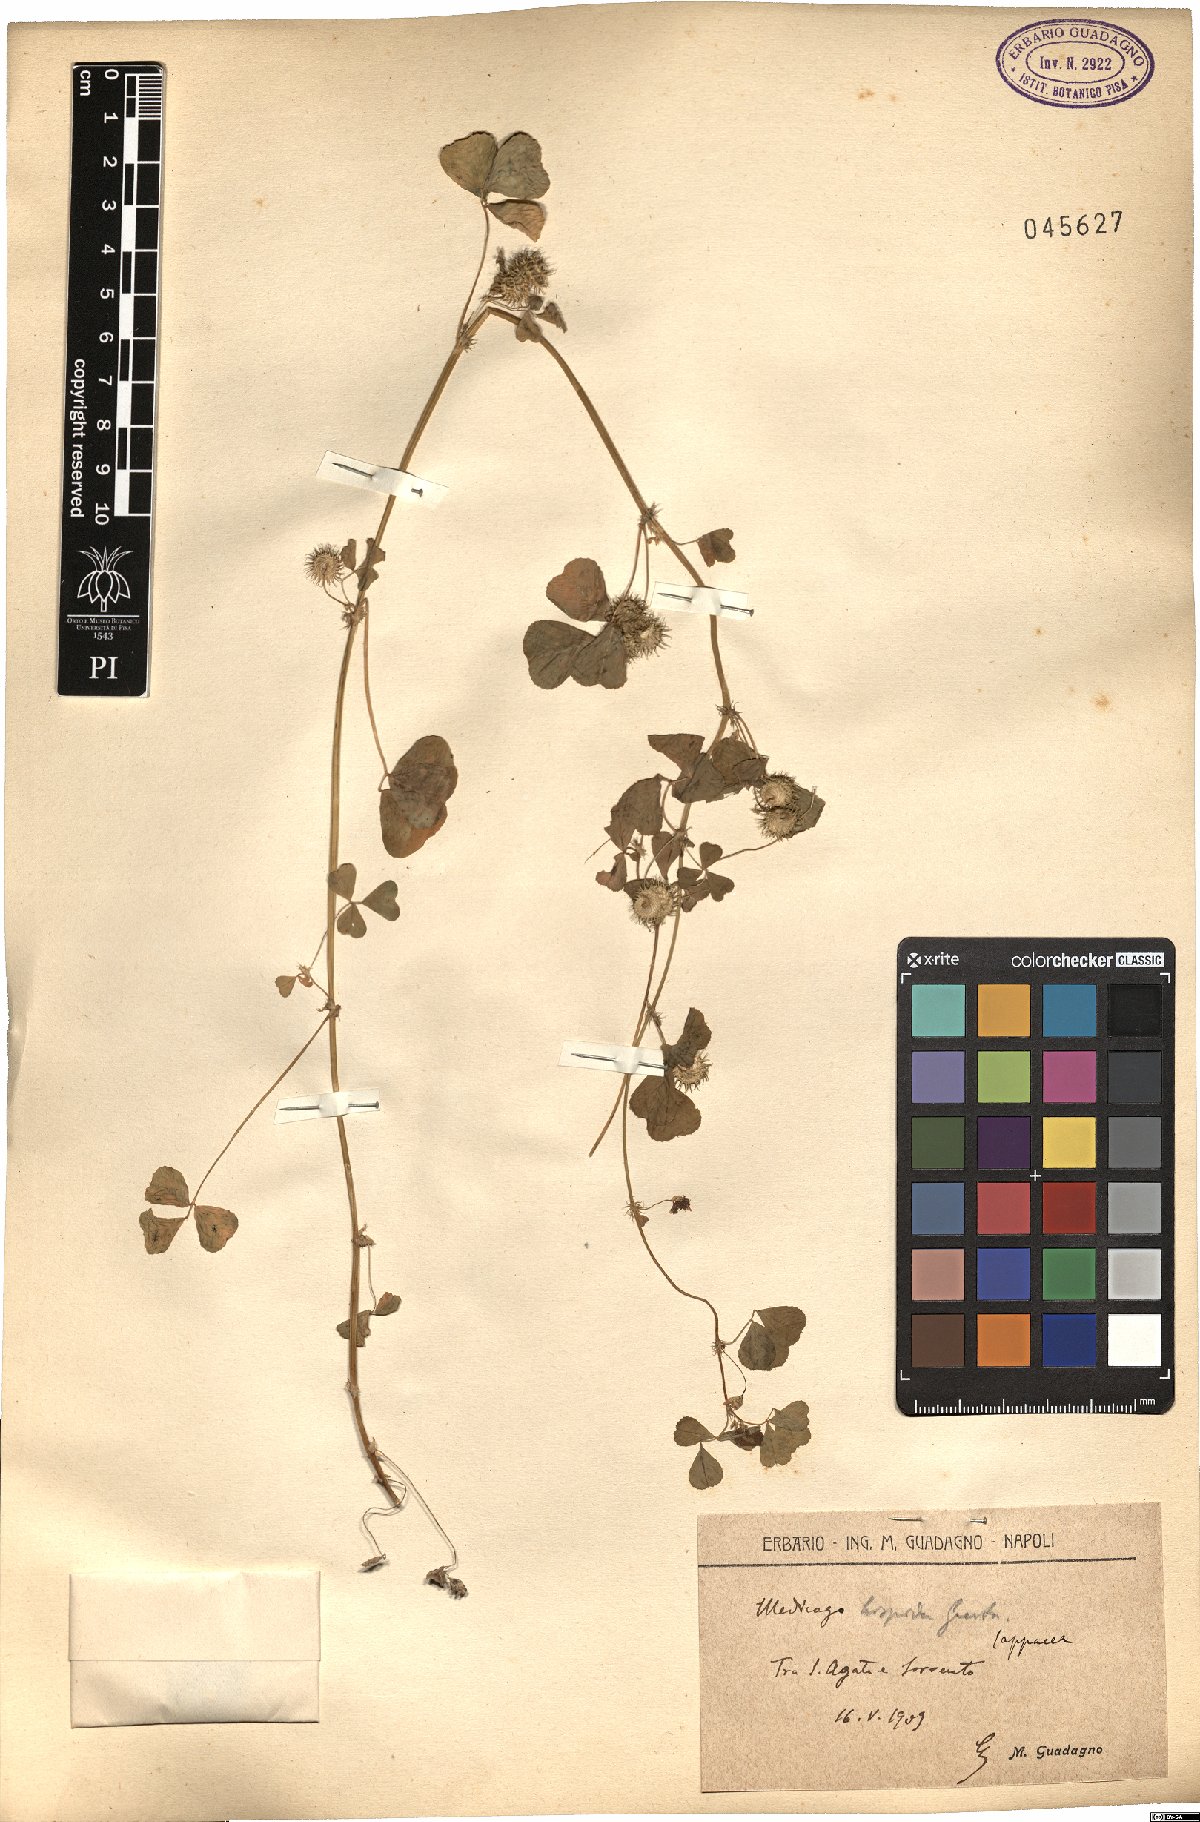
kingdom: Plantae
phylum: Tracheophyta
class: Magnoliopsida
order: Fabales
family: Fabaceae
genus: Medicago
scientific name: Medicago polymorpha
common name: Burclover
